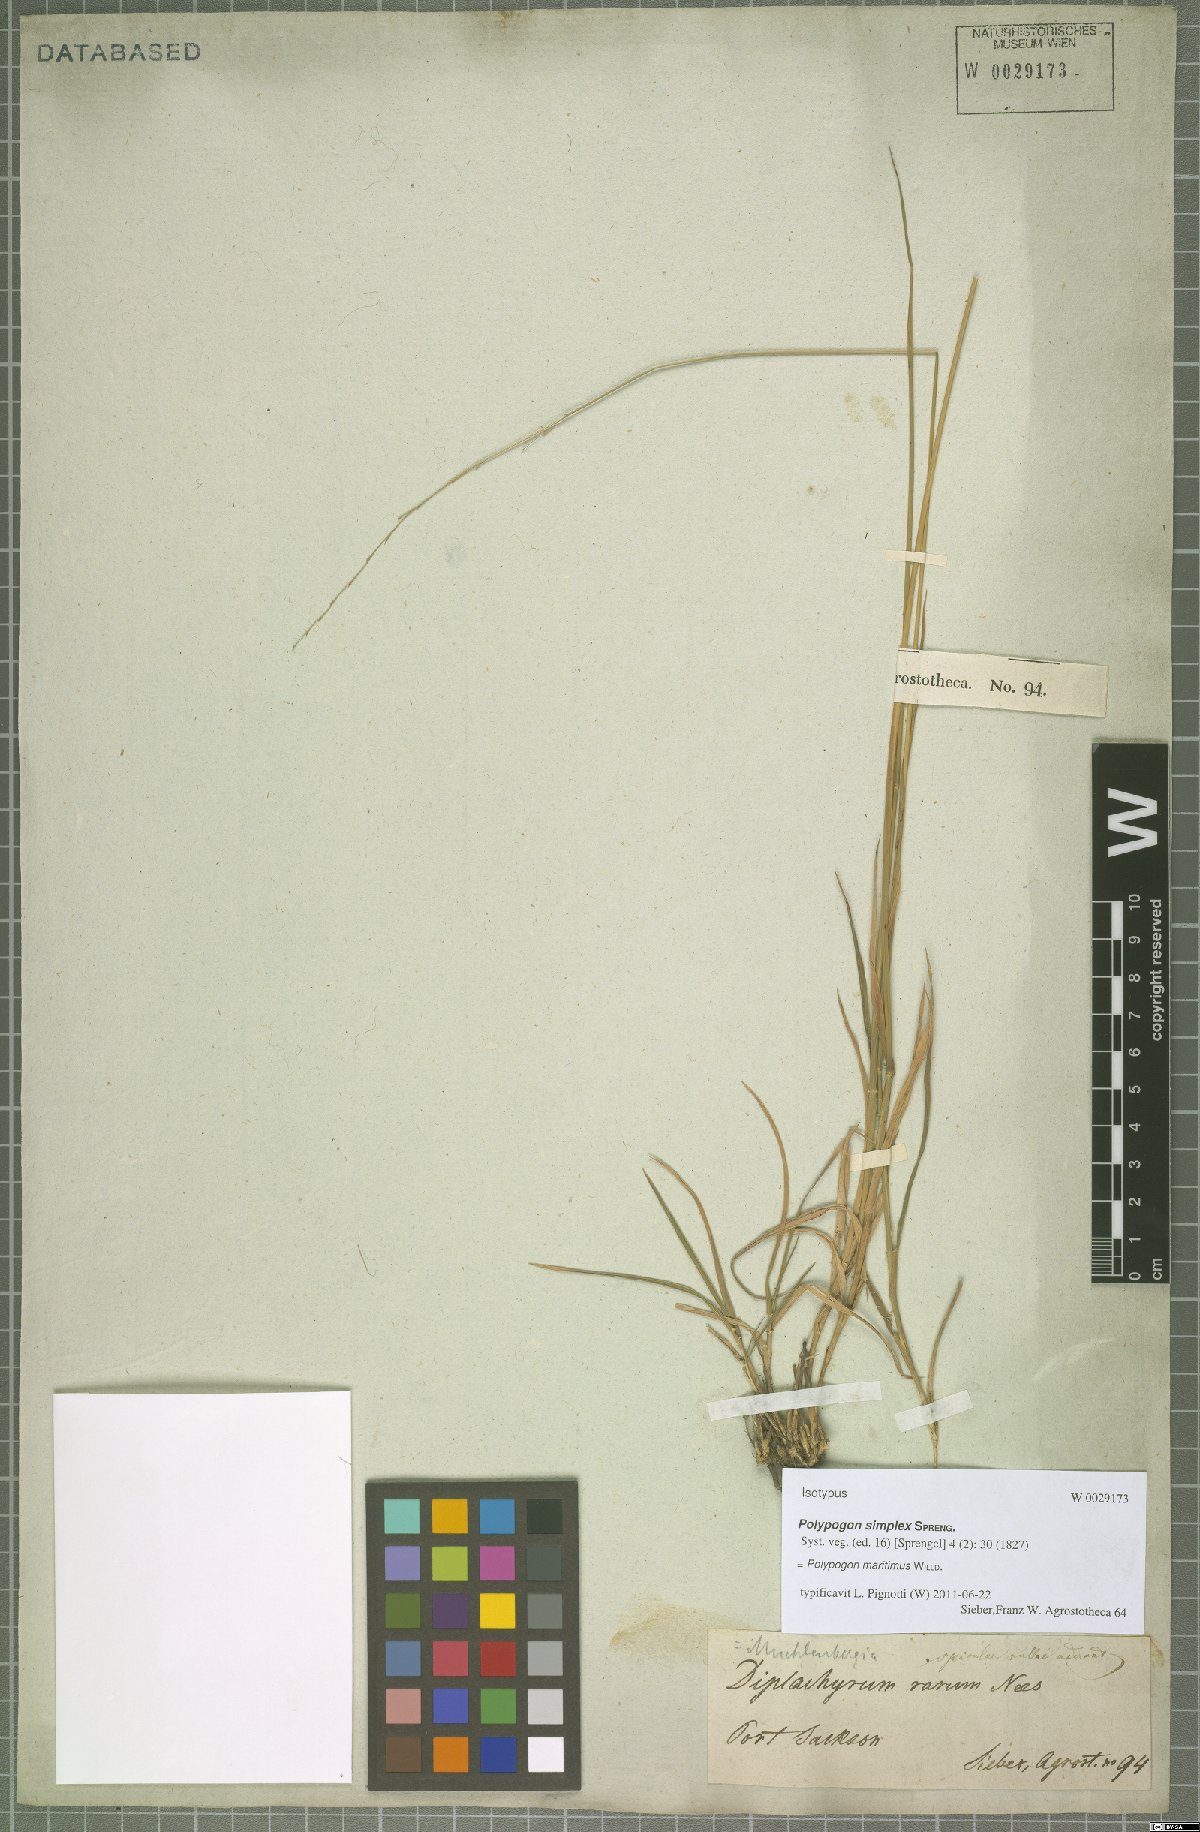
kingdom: Plantae
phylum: Tracheophyta
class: Liliopsida
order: Poales
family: Poaceae
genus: Polypogon
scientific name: Polypogon maritimus
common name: Mediterranean rabbitsfoot grass
